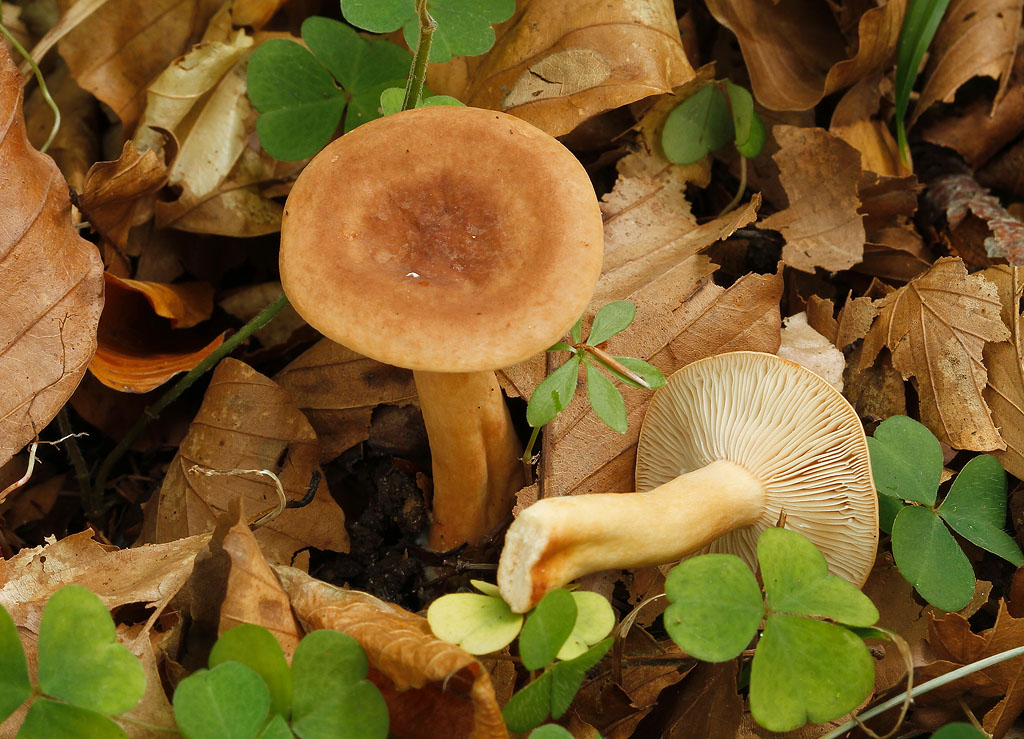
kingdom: Fungi
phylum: Basidiomycota
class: Agaricomycetes
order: Russulales
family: Russulaceae
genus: Lactarius
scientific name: Lactarius subdulcis
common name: sødlig mælkehat
